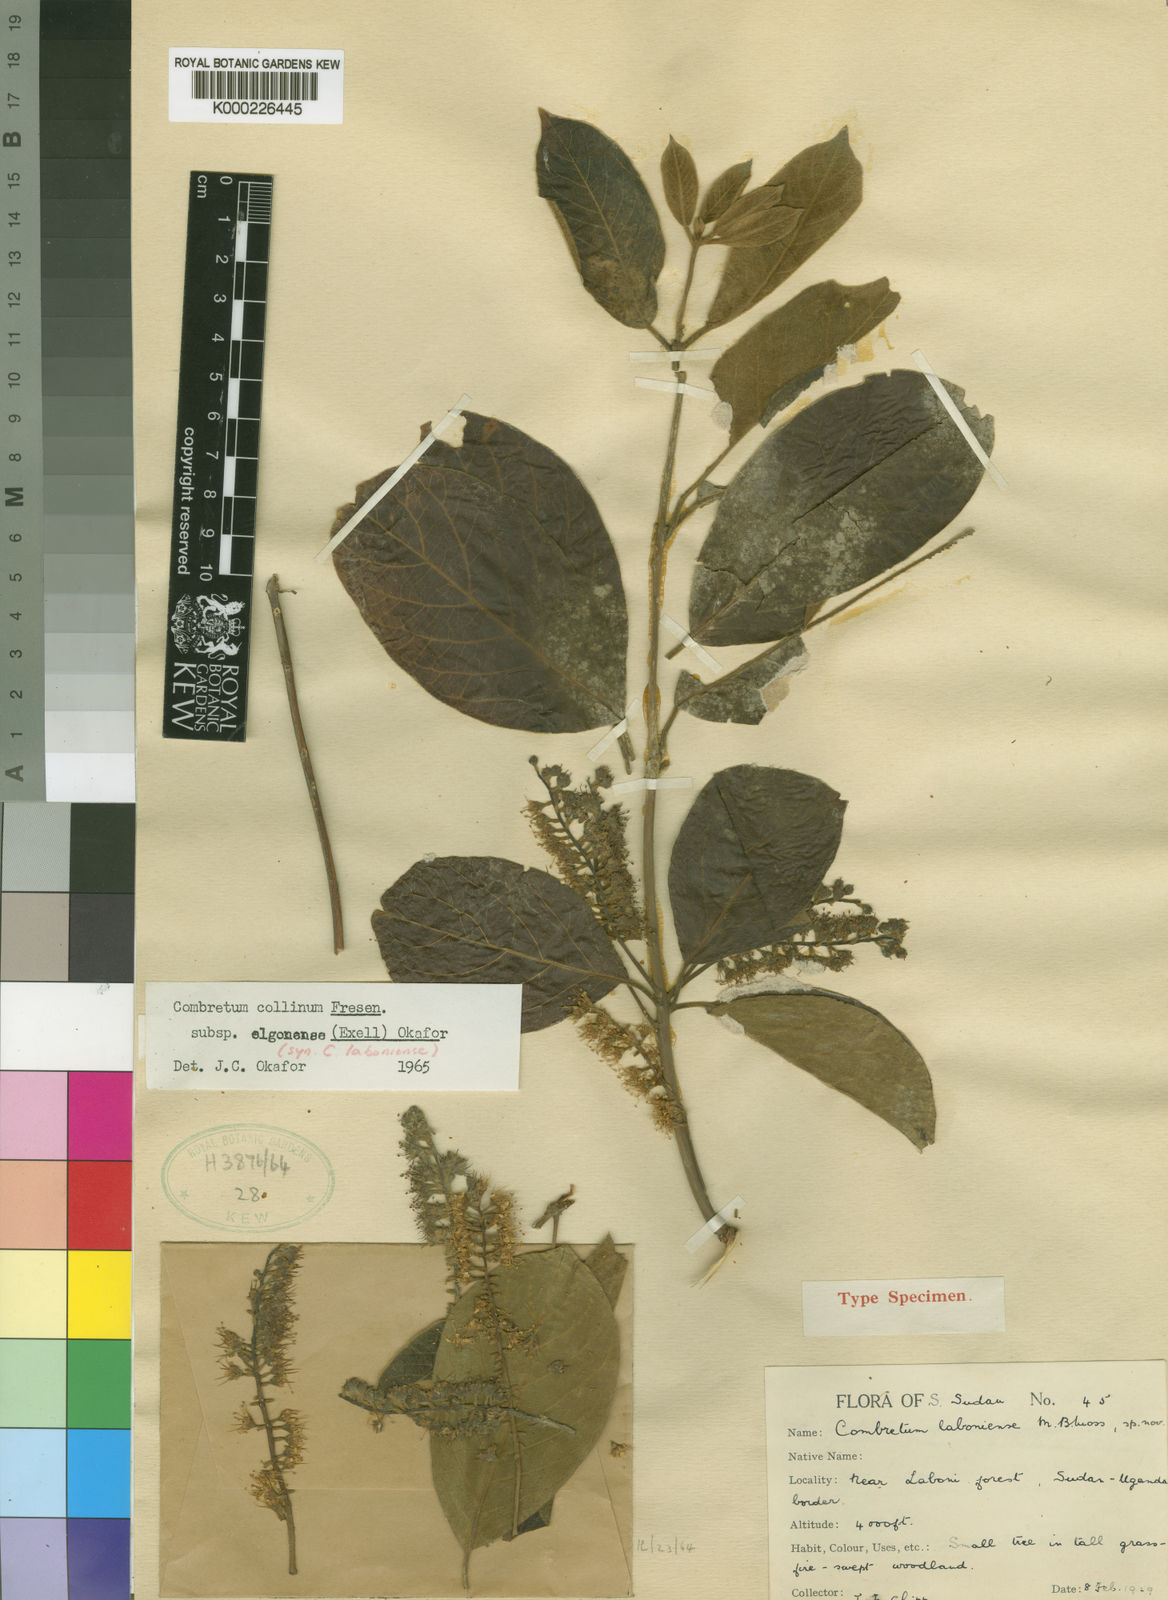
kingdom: Plantae
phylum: Tracheophyta
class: Magnoliopsida
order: Myrtales
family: Combretaceae
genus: Combretum
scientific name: Combretum collinum
